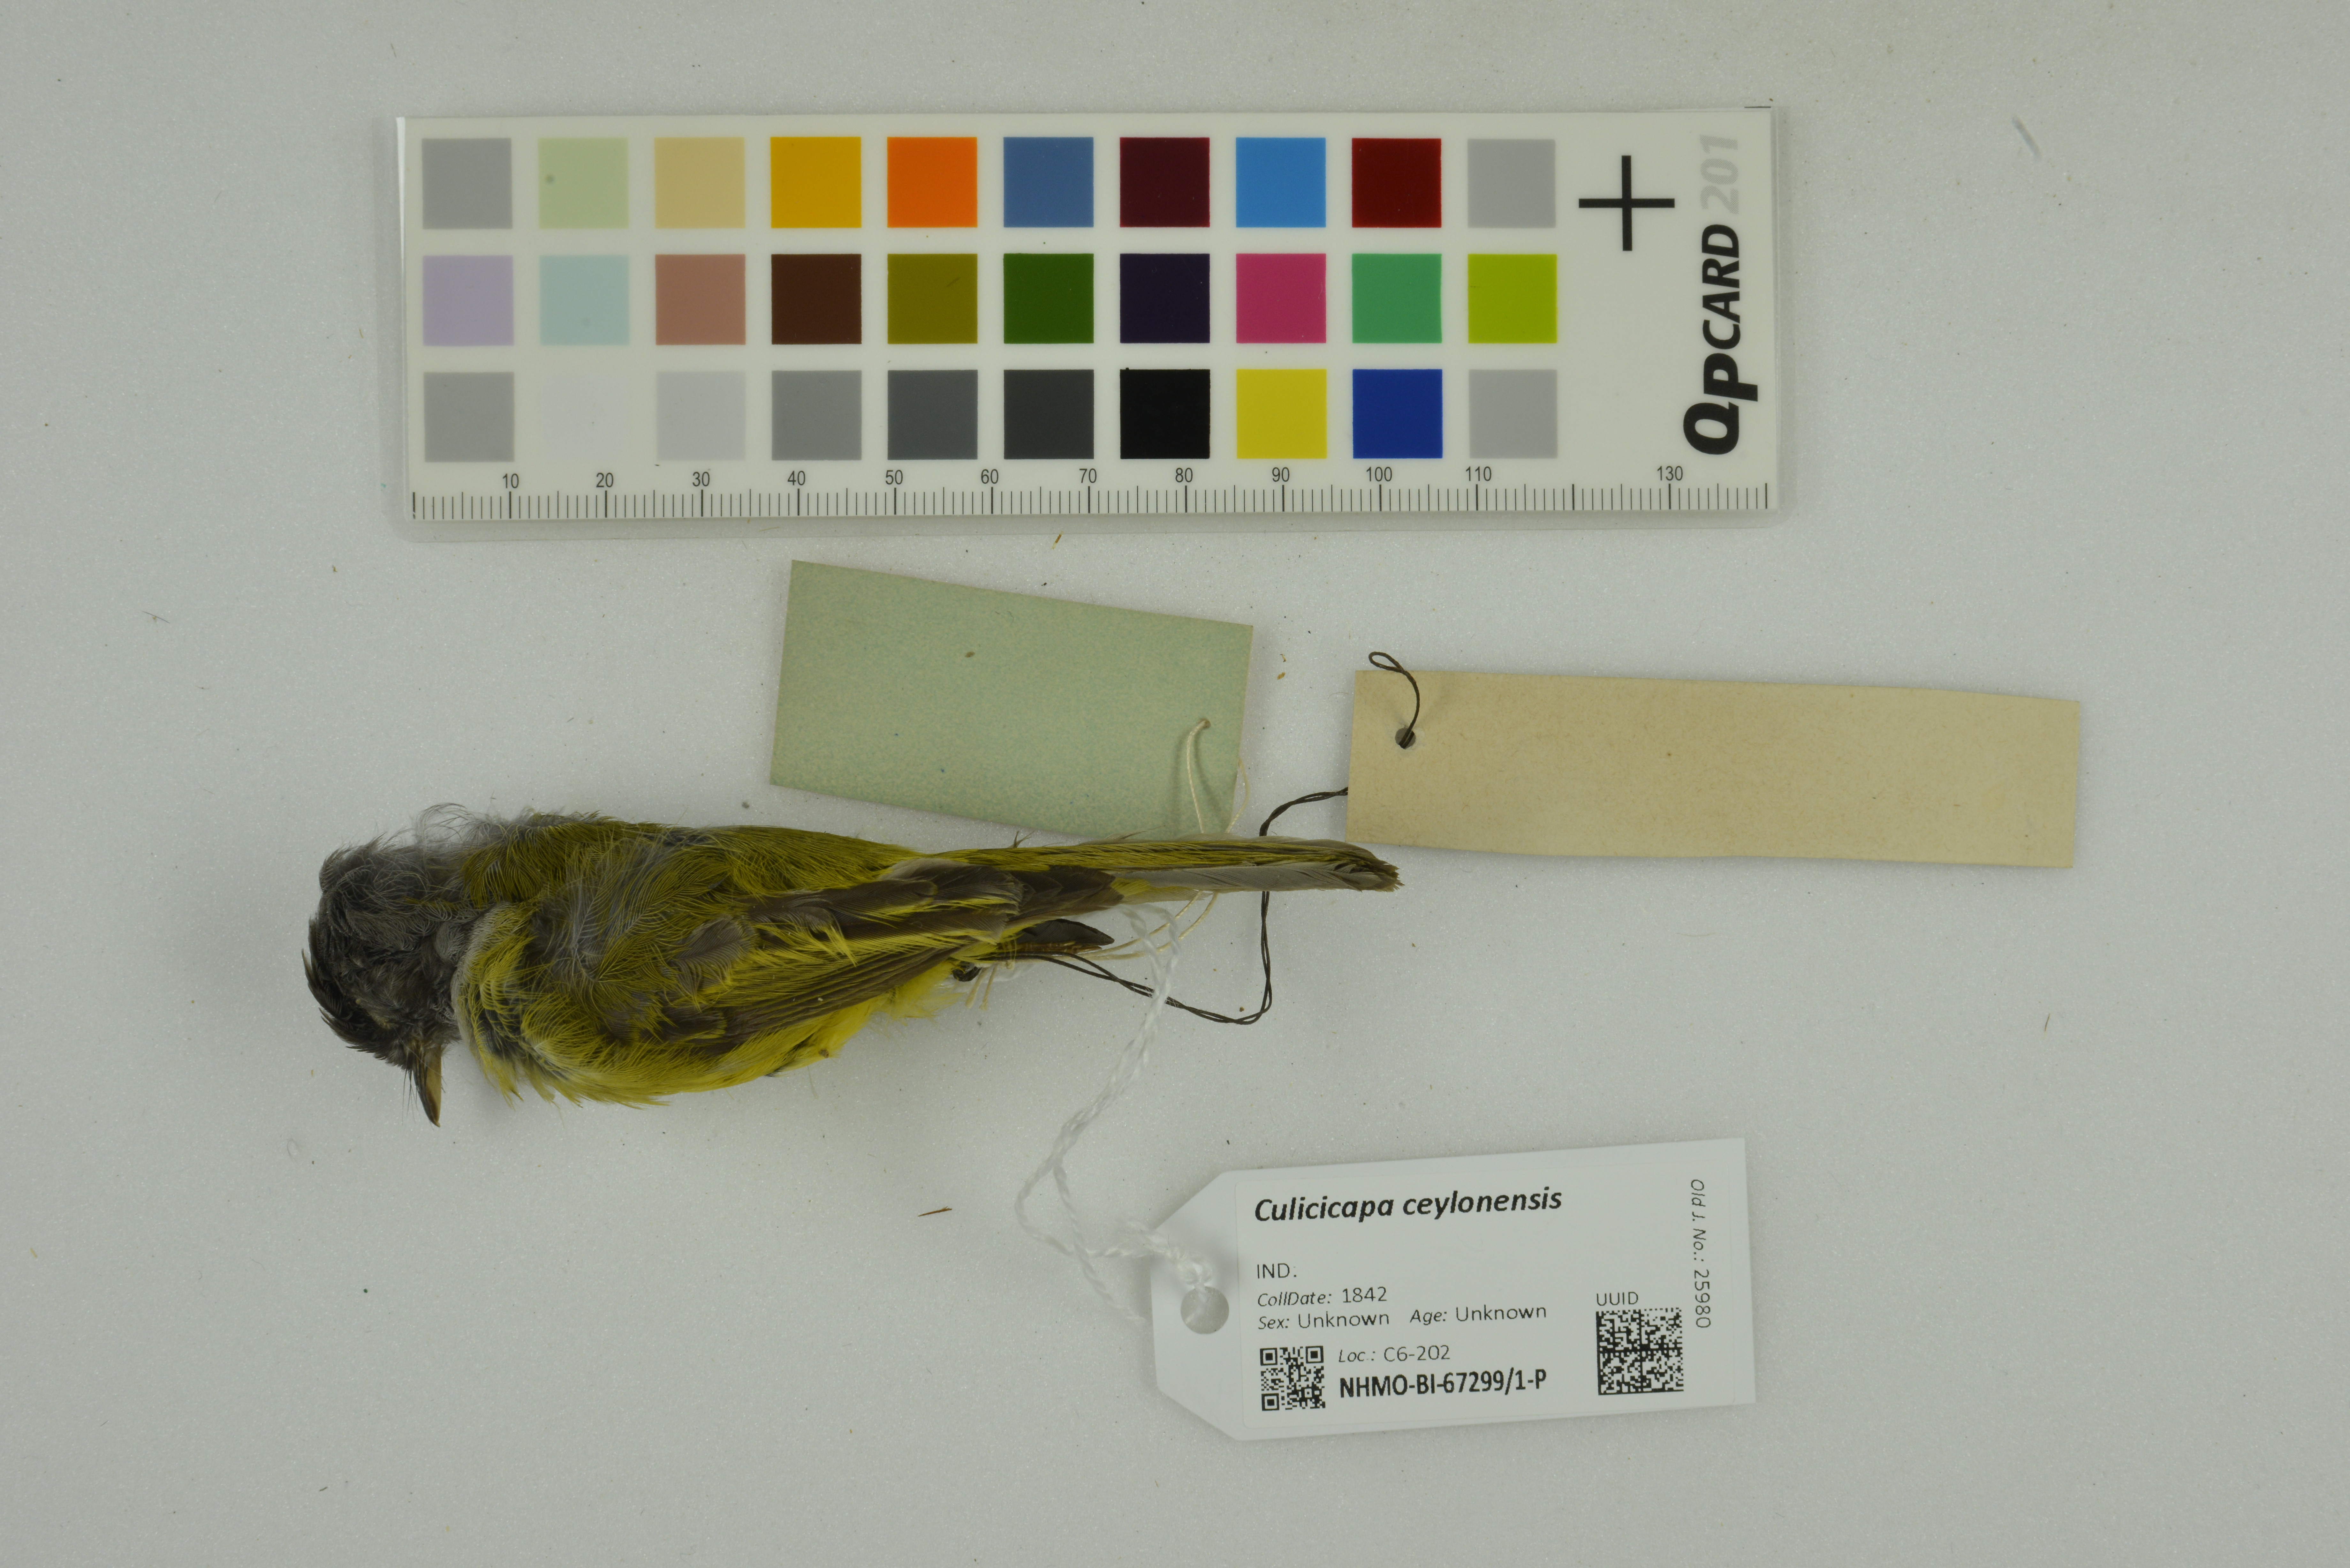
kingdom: Animalia
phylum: Chordata
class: Aves
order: Passeriformes
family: Stenostiridae
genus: Culicicapa
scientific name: Culicicapa ceylonensis
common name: Grey-headed canary-flycatcher
